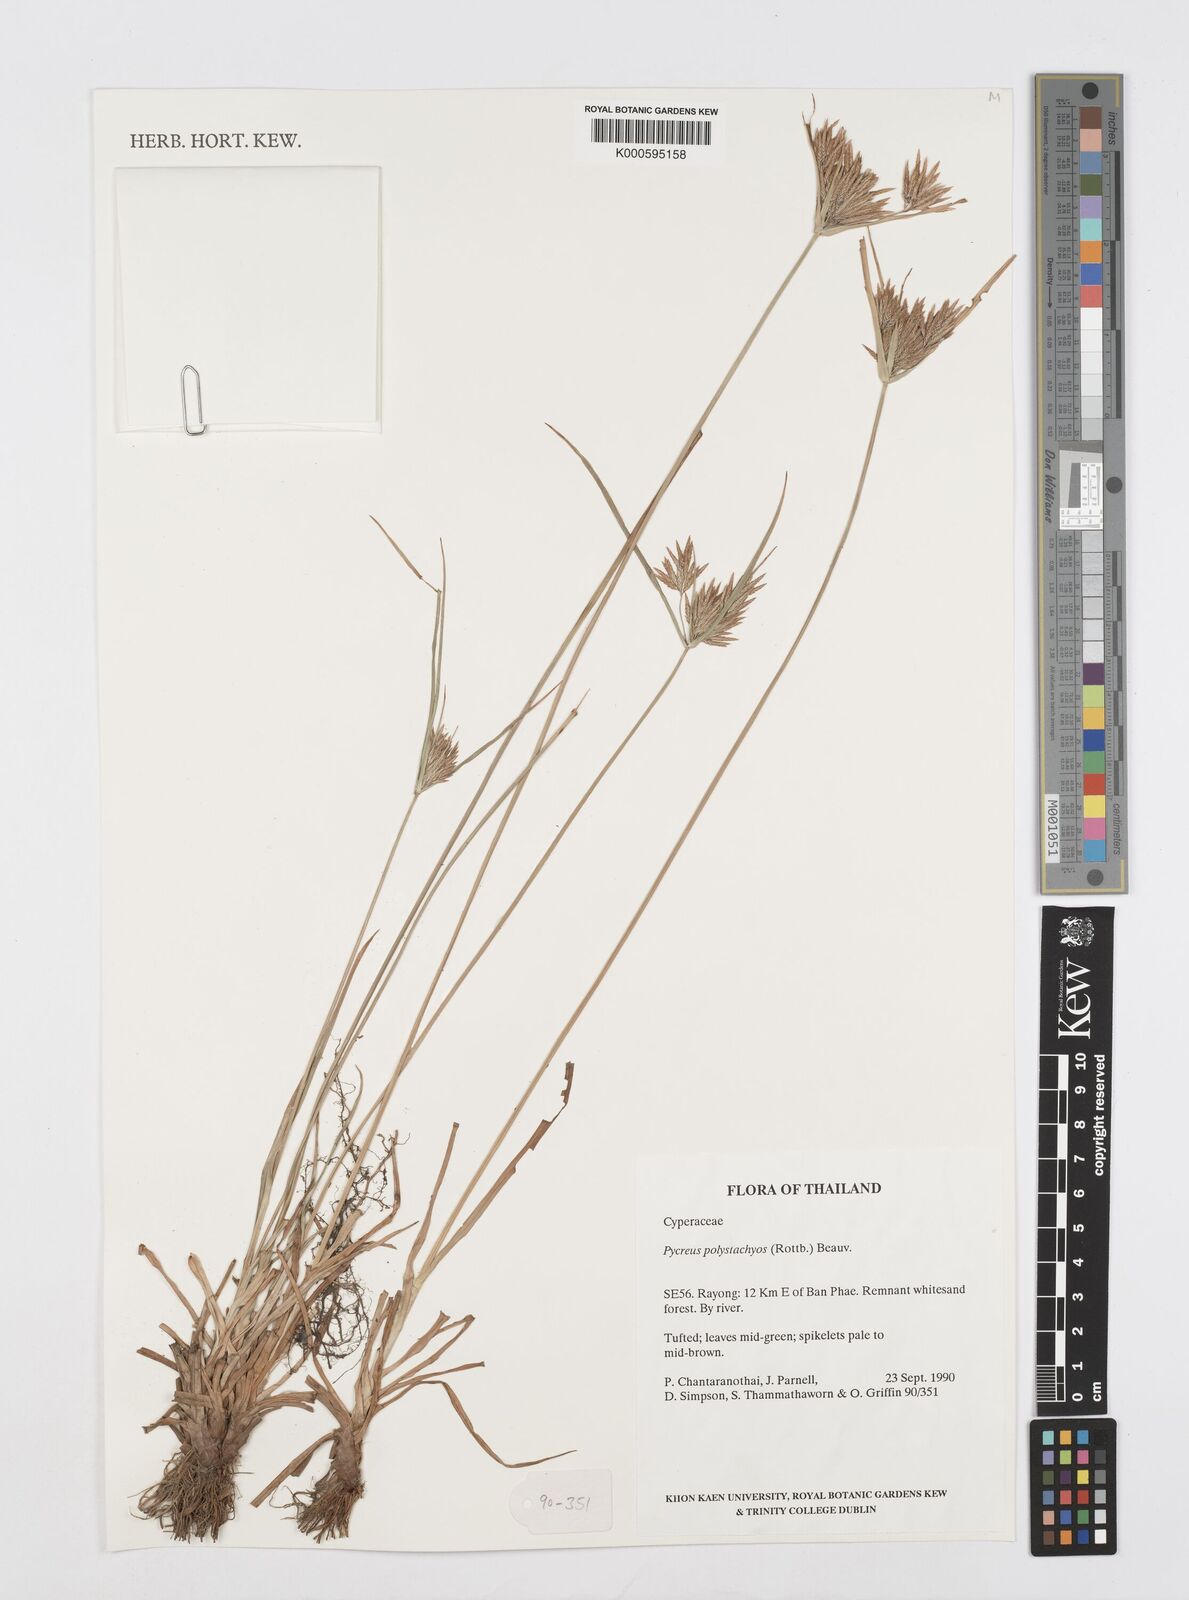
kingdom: Plantae
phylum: Tracheophyta
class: Liliopsida
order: Poales
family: Cyperaceae
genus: Cyperus
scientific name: Cyperus polystachyos
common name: Bunchy flat sedge
